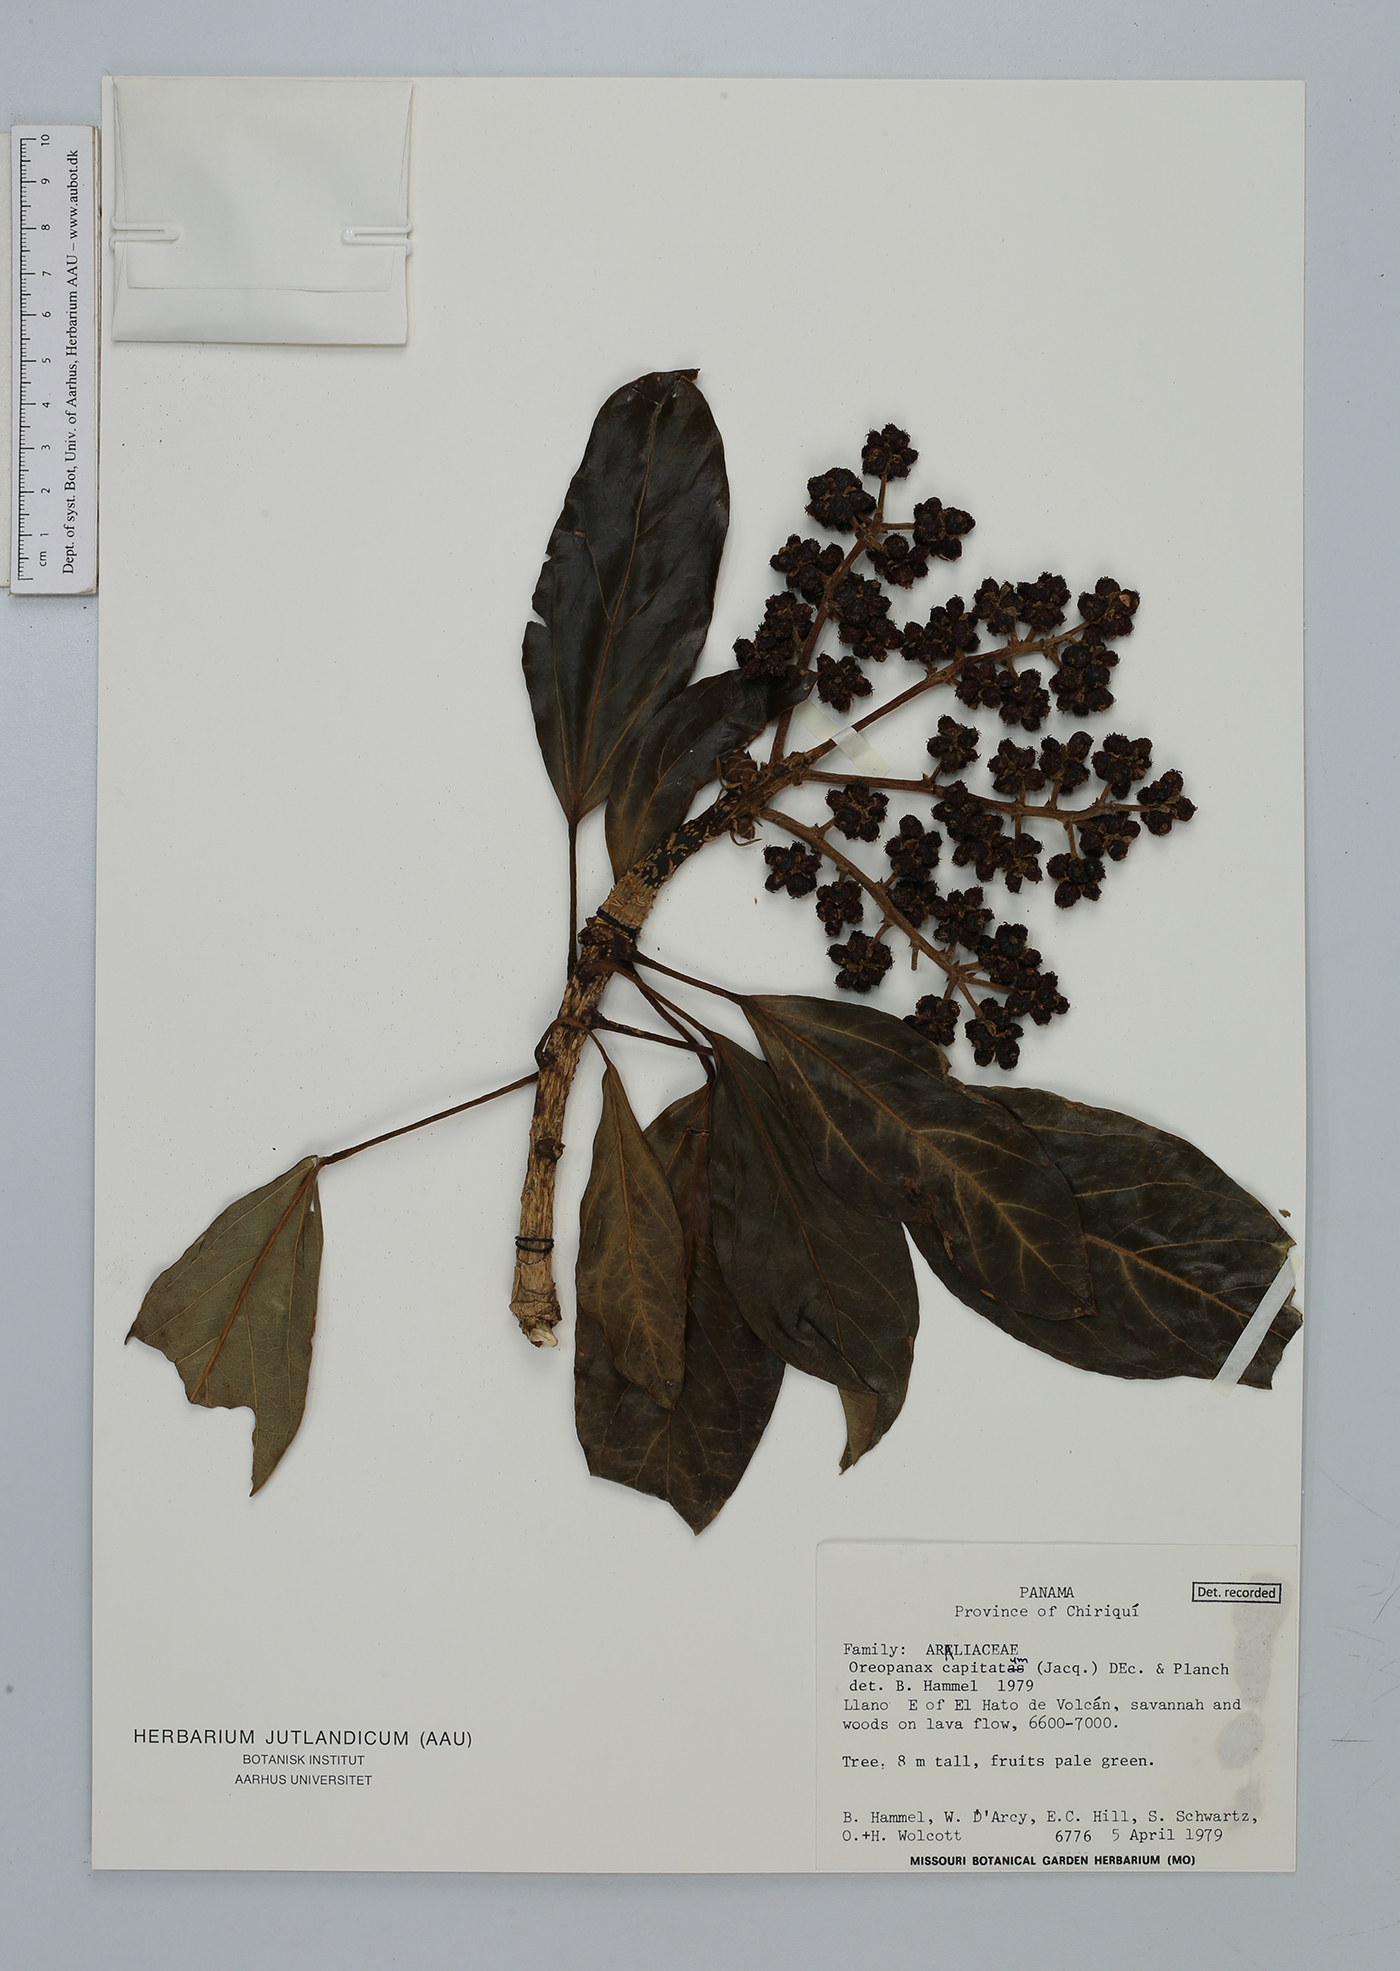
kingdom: Plantae
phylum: Tracheophyta
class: Magnoliopsida
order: Apiales
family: Araliaceae
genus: Oreopanax
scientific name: Oreopanax capitatus
